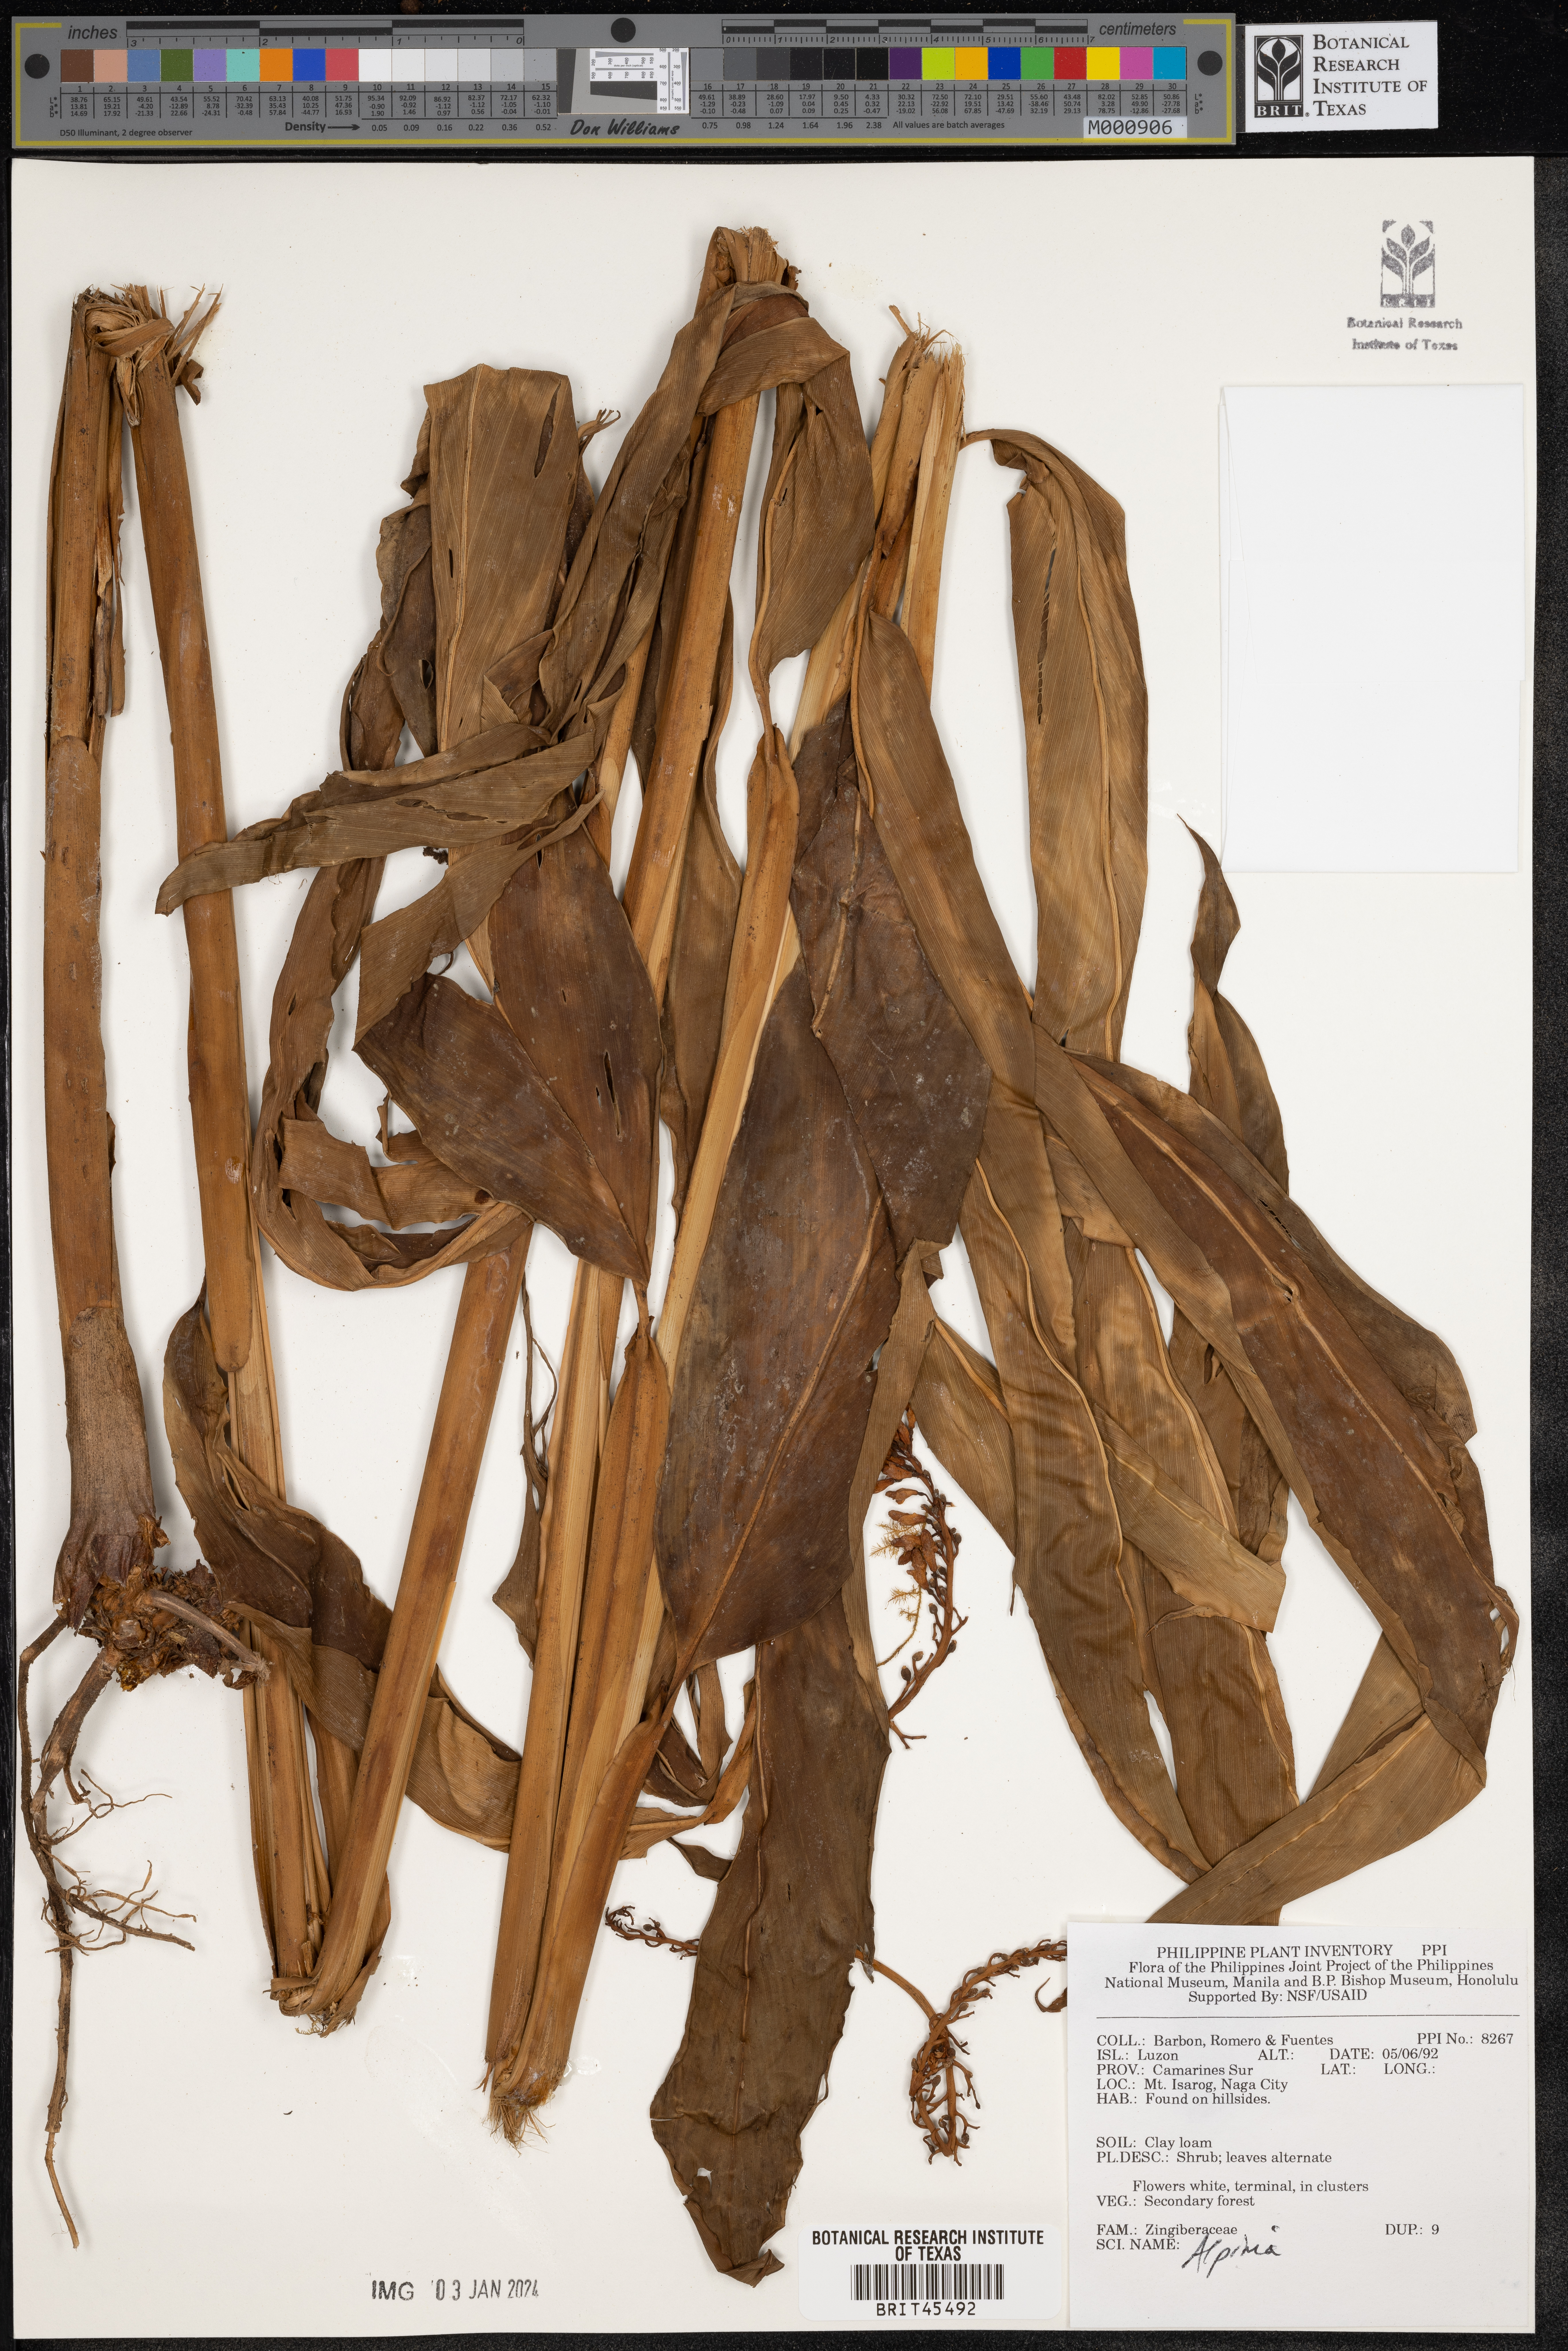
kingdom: Plantae
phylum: Tracheophyta
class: Liliopsida
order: Zingiberales
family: Zingiberaceae
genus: Alpinia
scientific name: Alpinia
